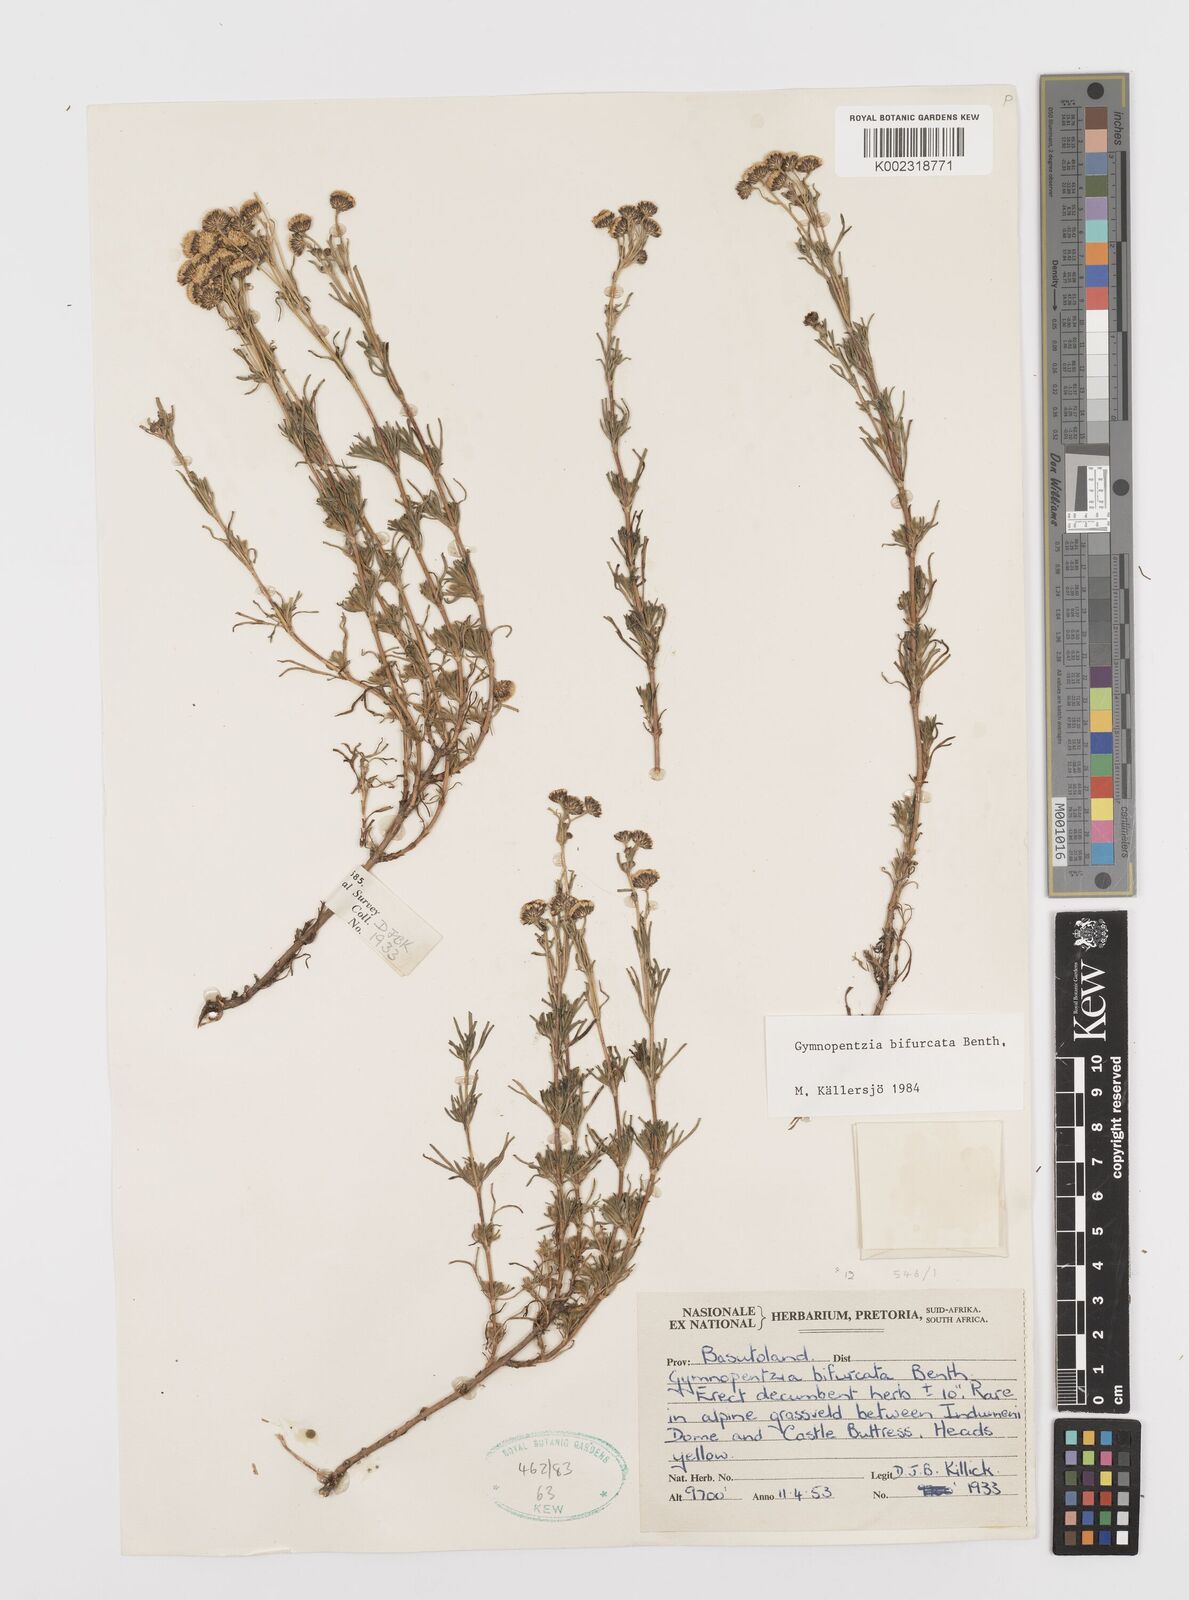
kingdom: Plantae
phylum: Tracheophyta
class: Magnoliopsida
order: Asterales
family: Asteraceae
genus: Gymnopentzia
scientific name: Gymnopentzia bifurcata
